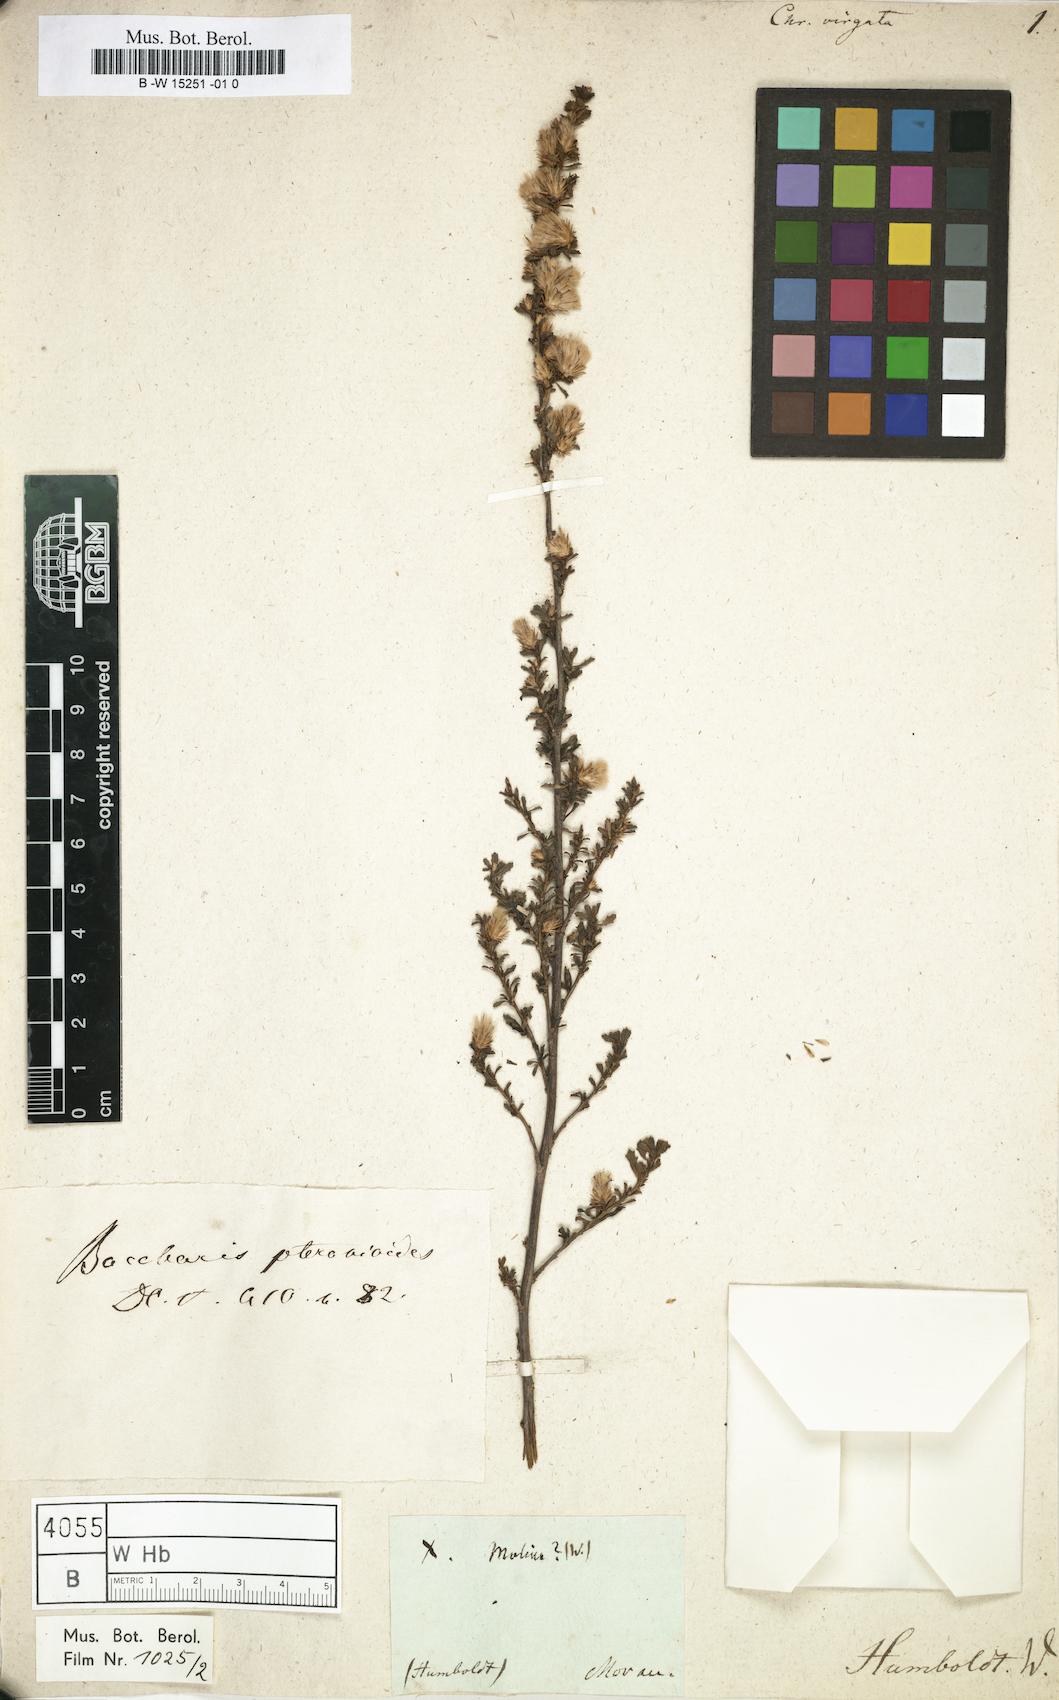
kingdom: Plantae
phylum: Tracheophyta
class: Magnoliopsida
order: Asterales
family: Asteraceae
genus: Bigelowia
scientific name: Bigelowia nudata
